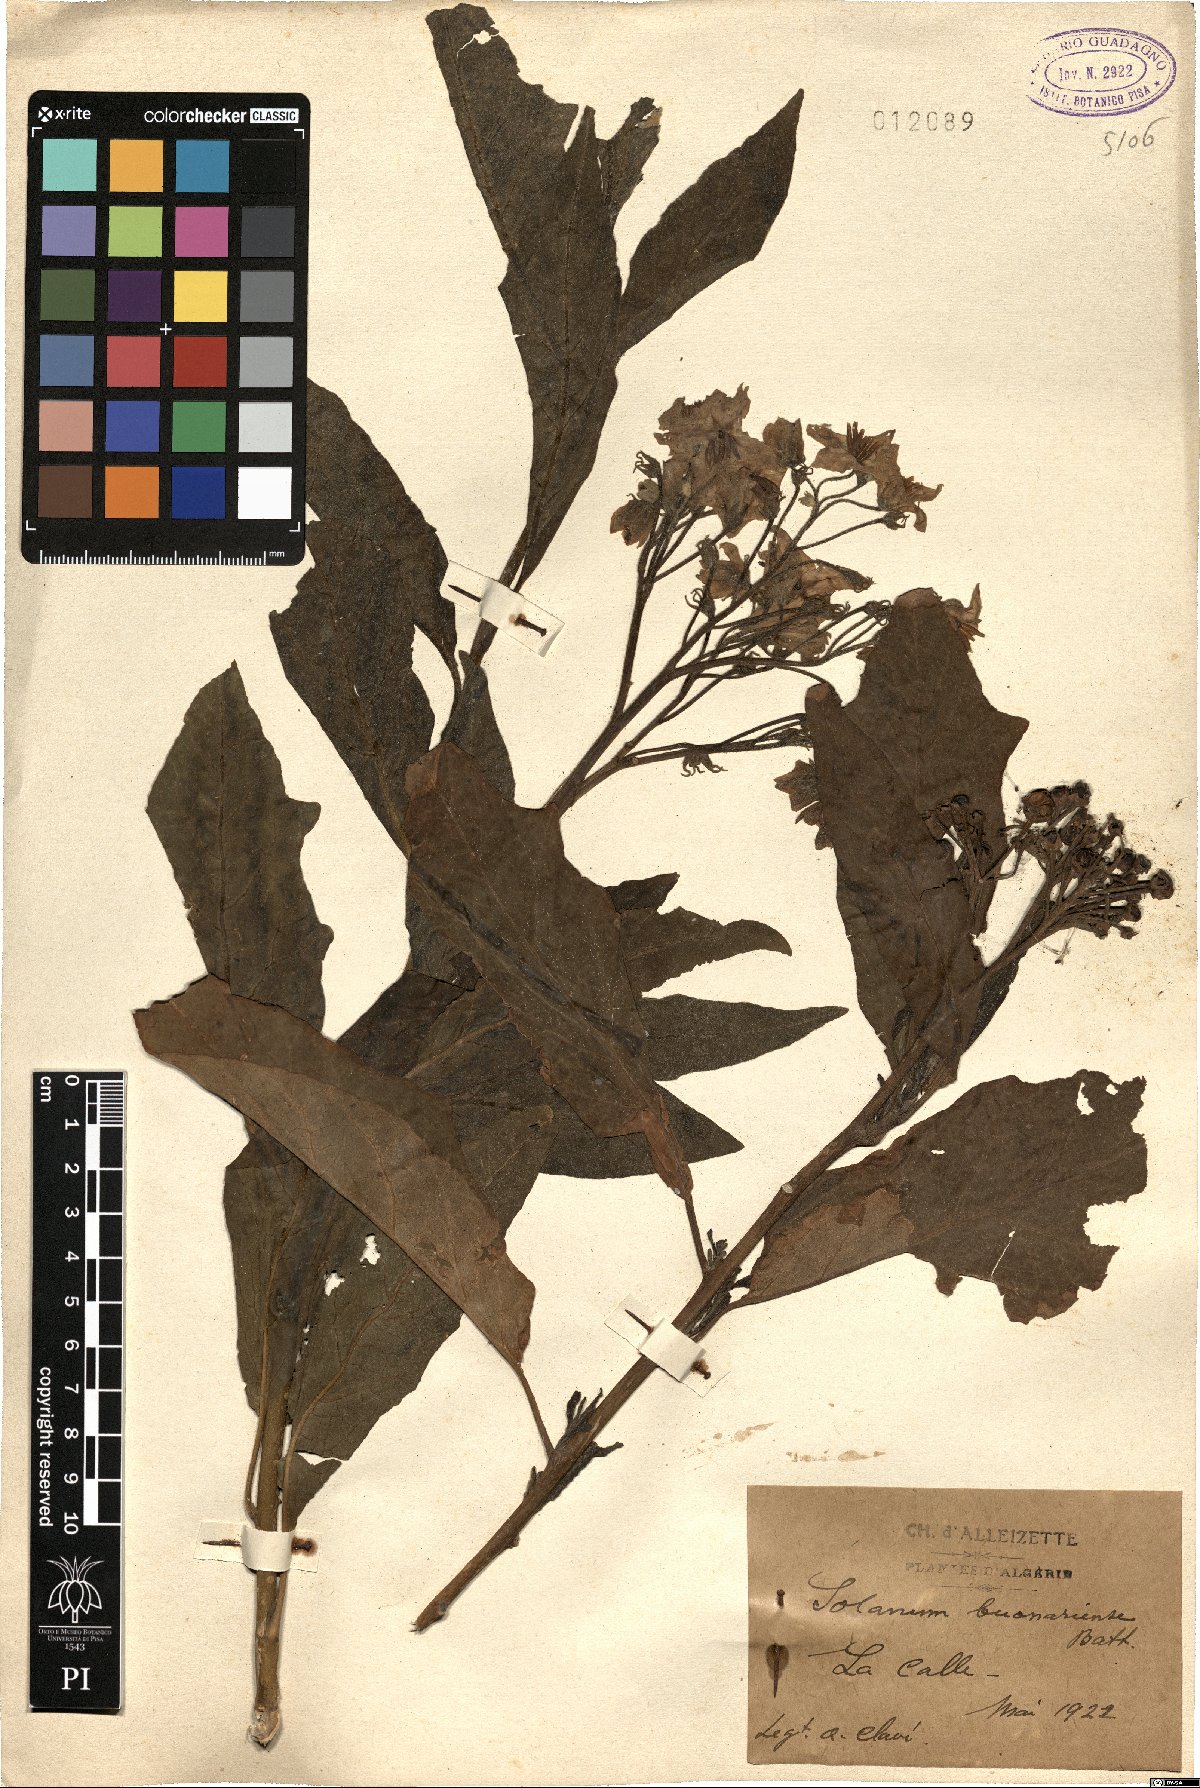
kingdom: Plantae
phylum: Tracheophyta
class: Magnoliopsida
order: Solanales
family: Solanaceae
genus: Solanum
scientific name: Solanum bonariense
